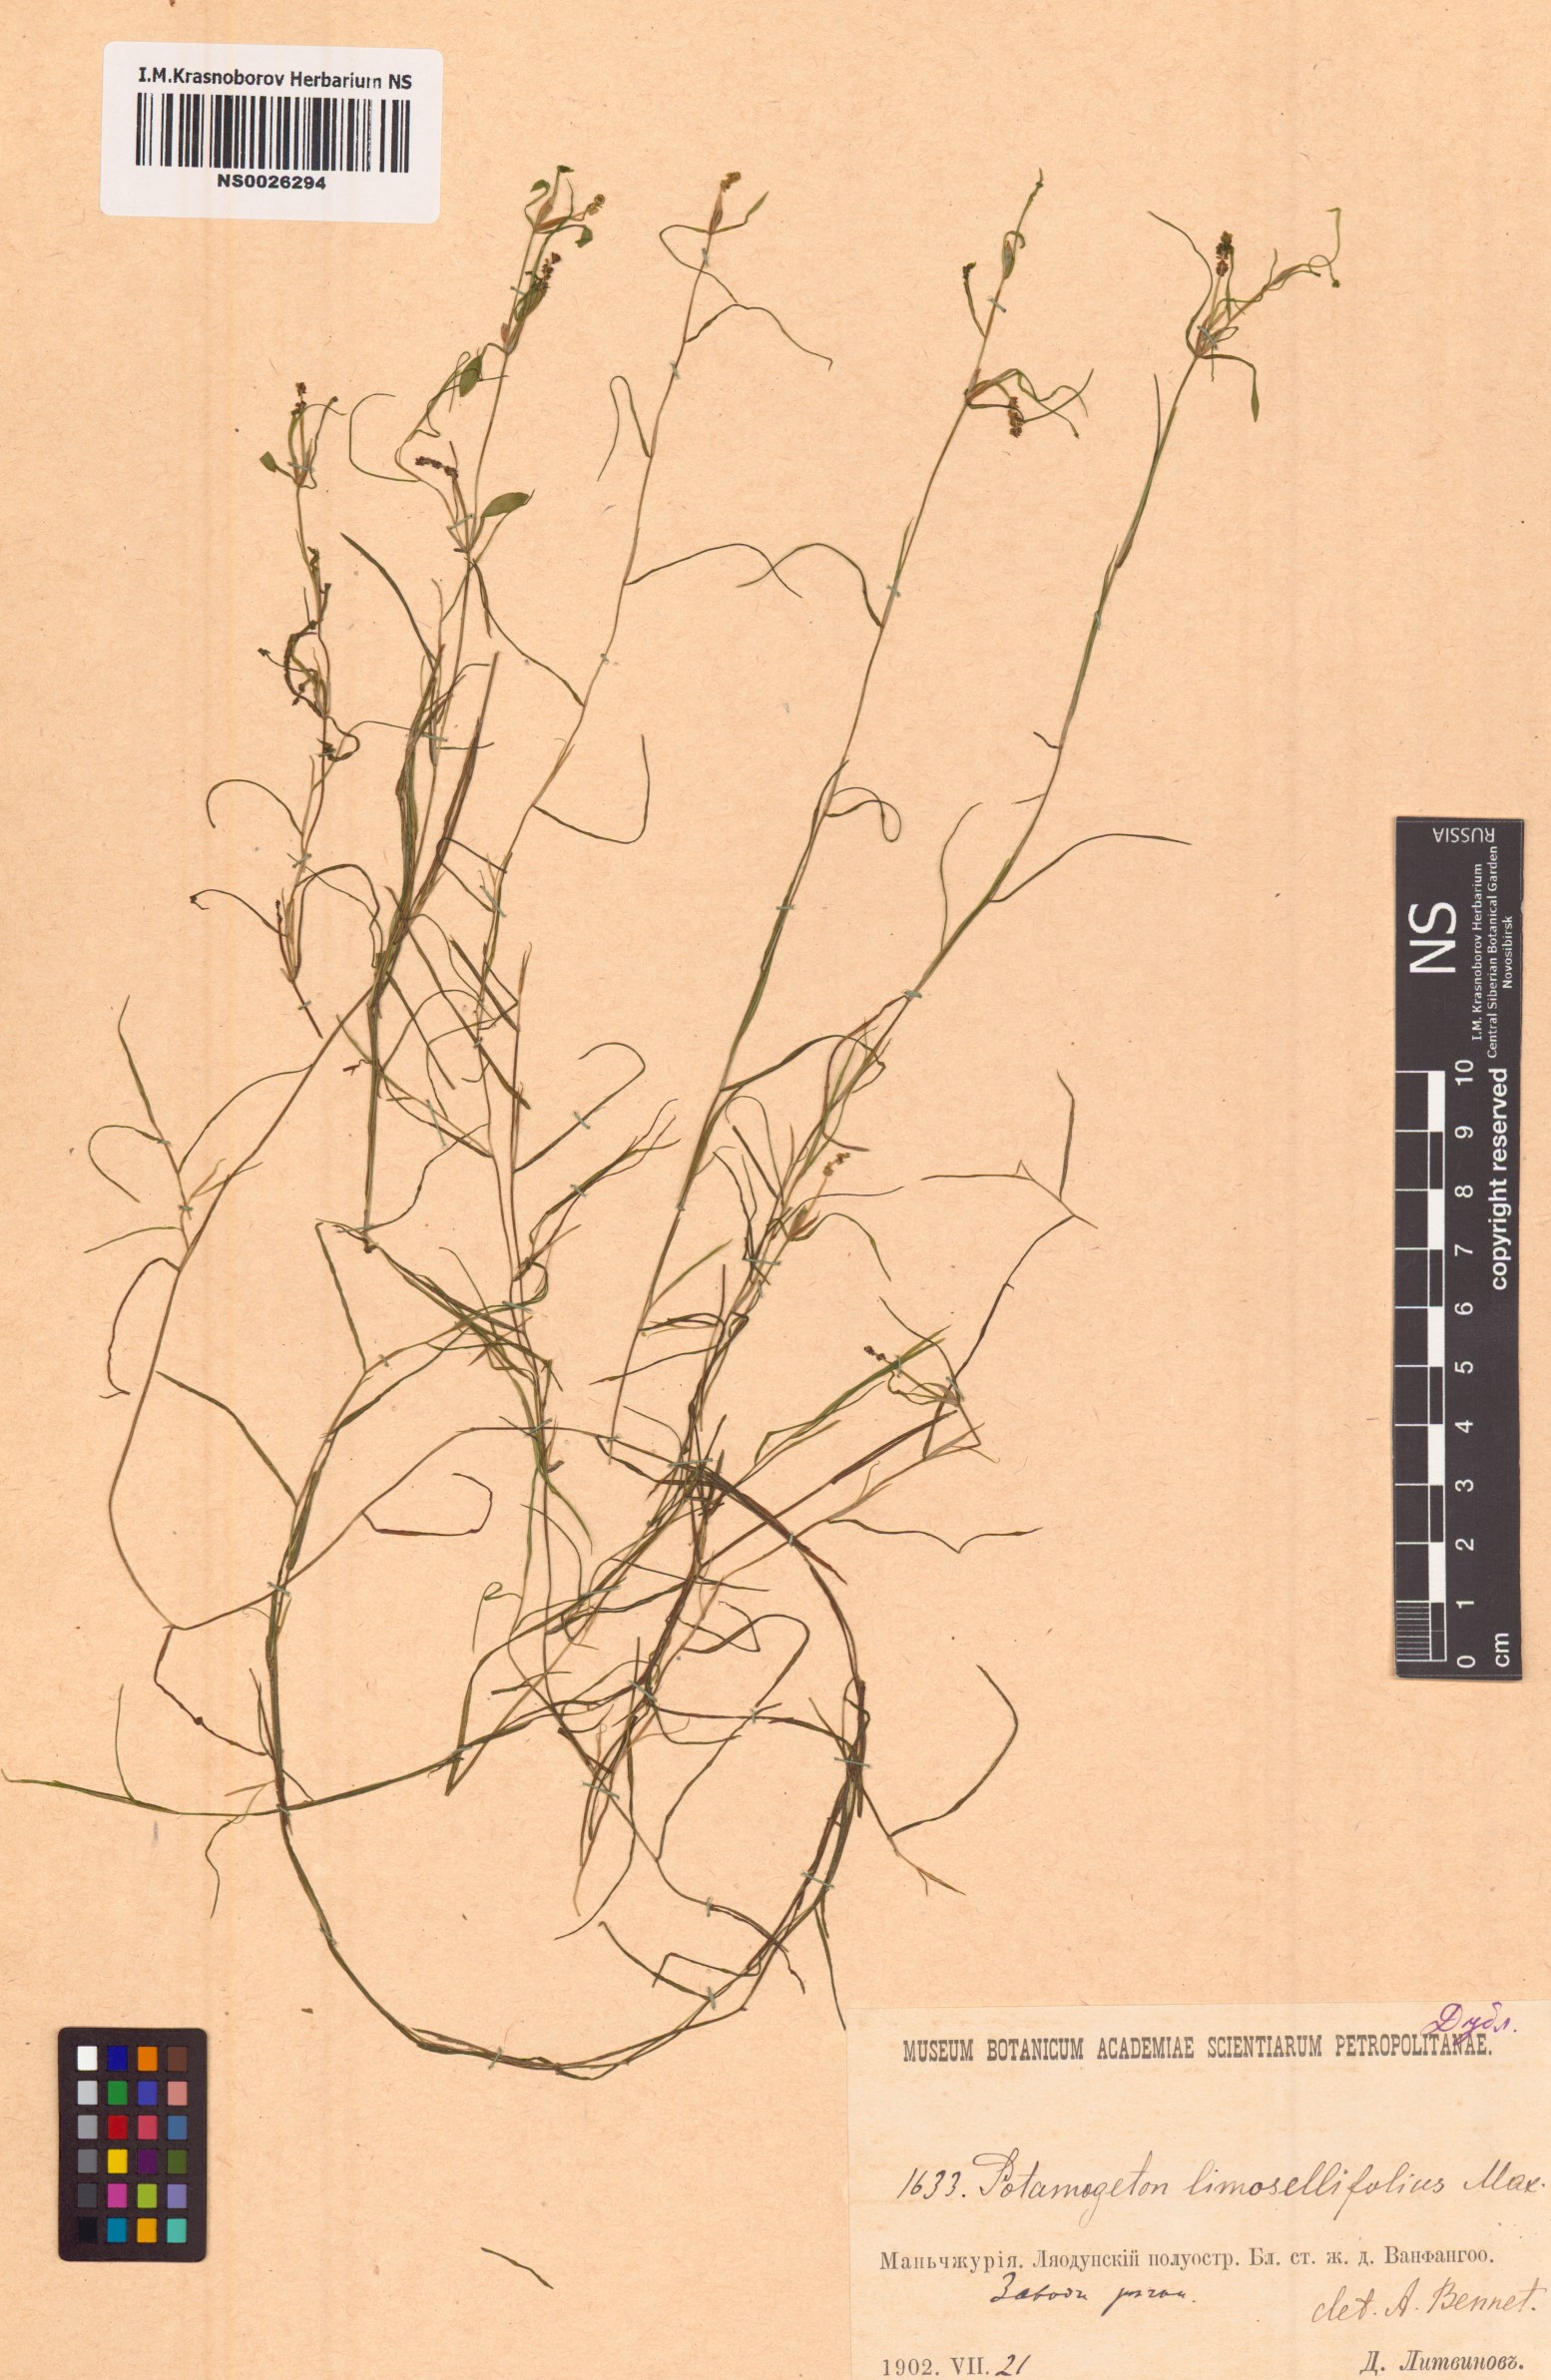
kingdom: Plantae
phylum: Tracheophyta
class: Liliopsida
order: Alismatales
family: Potamogetonaceae
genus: Potamogeton
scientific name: Potamogeton octandrus
